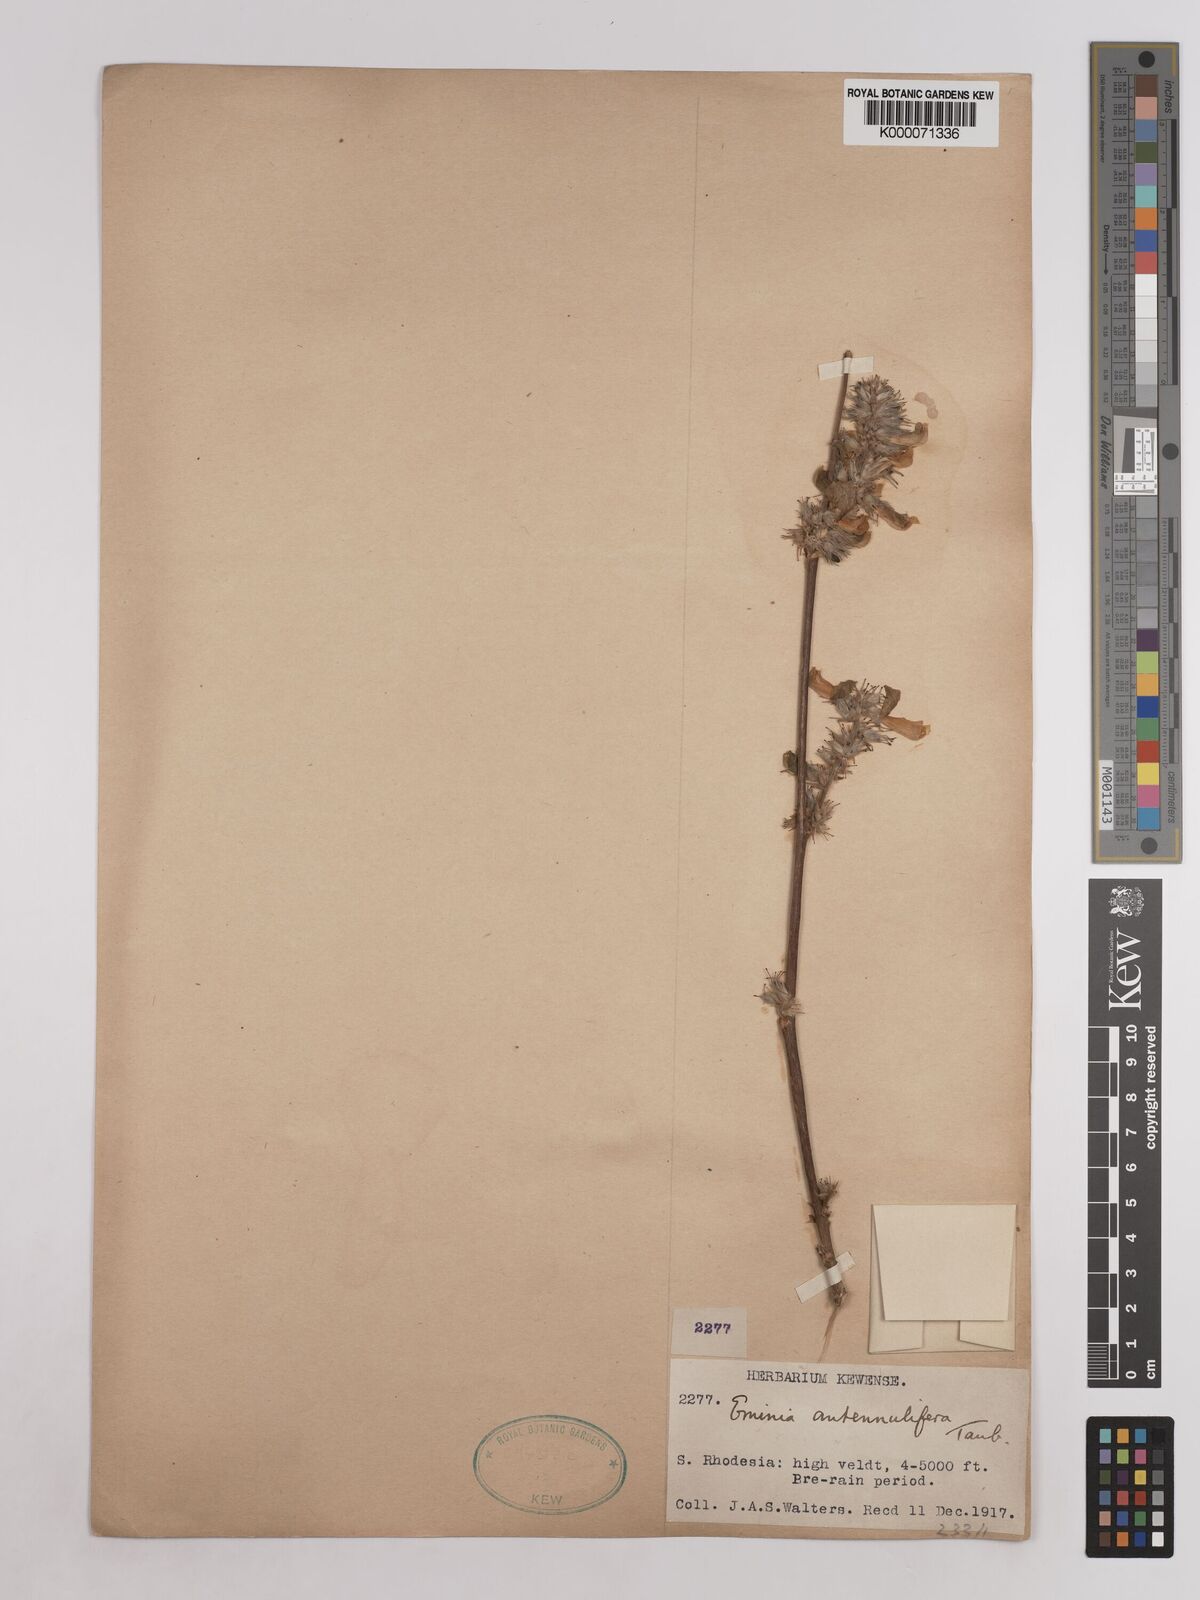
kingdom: Plantae
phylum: Tracheophyta
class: Magnoliopsida
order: Fabales
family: Fabaceae
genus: Eminia
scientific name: Eminia antennulifera
